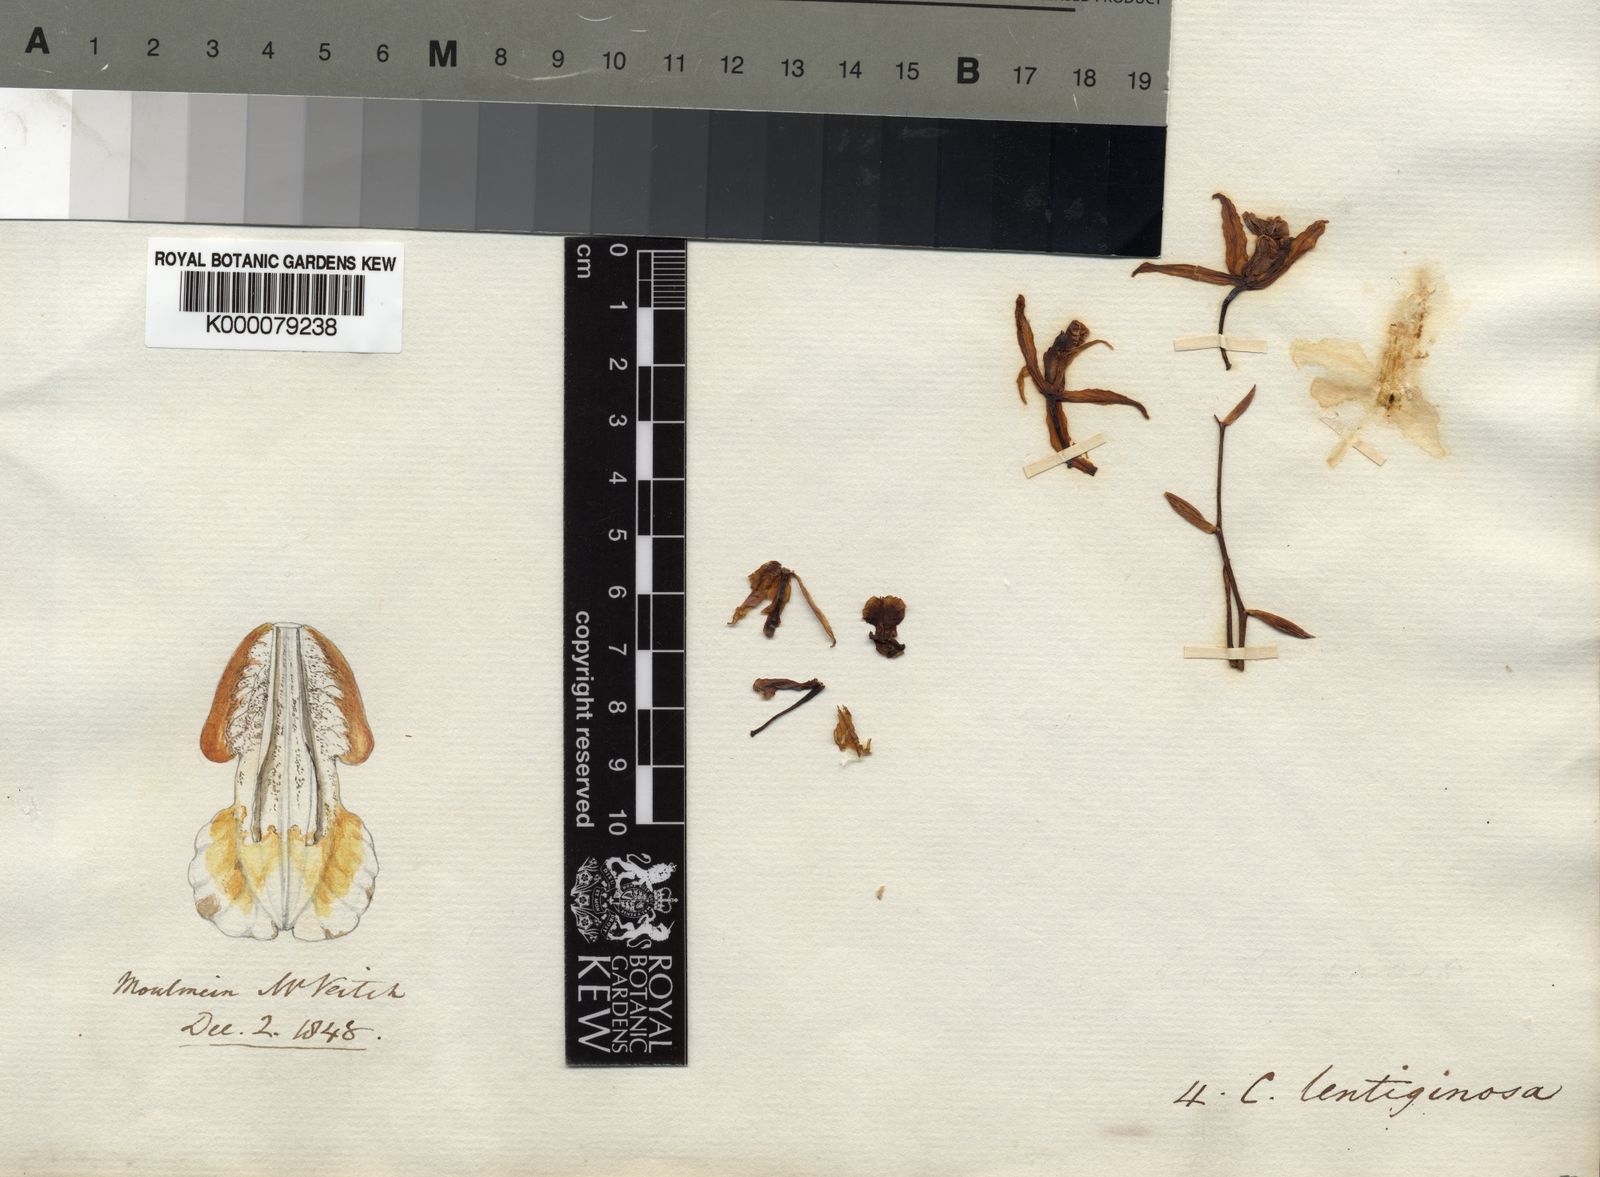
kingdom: Plantae
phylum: Tracheophyta
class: Liliopsida
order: Asparagales
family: Orchidaceae
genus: Coelogyne
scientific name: Coelogyne lentiginosa
